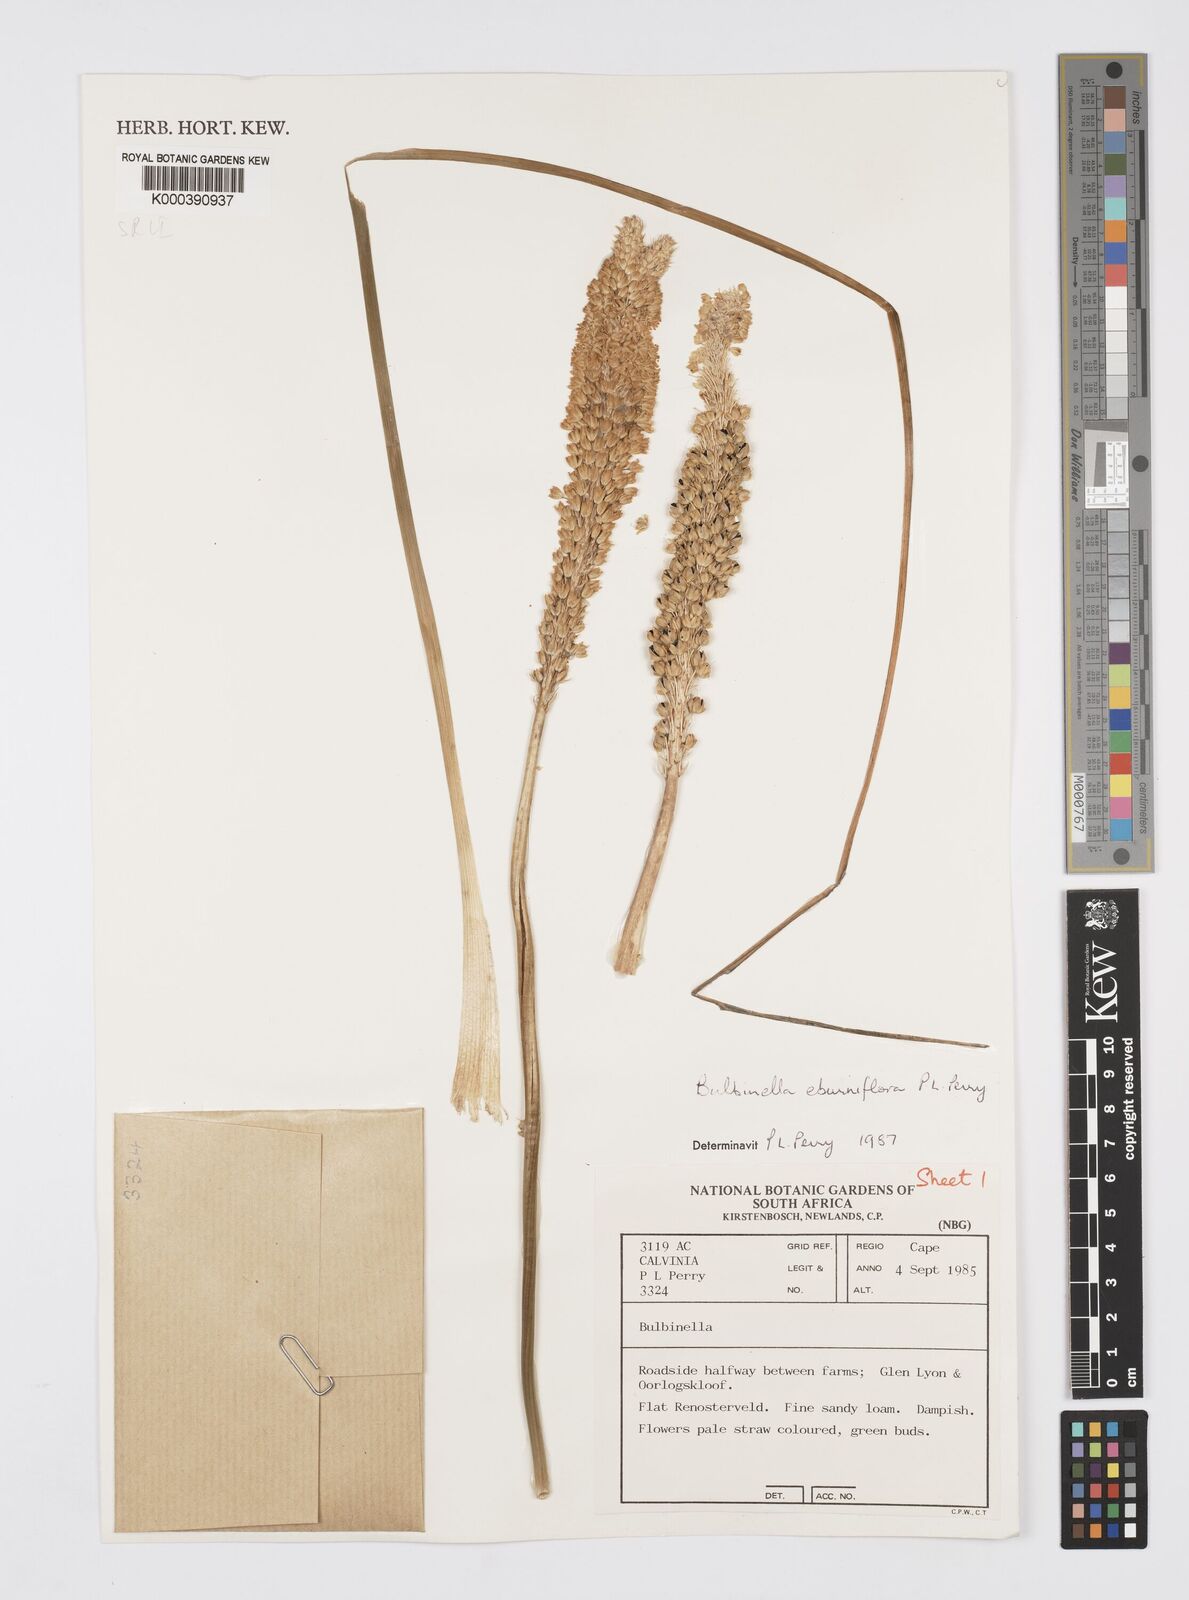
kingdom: Plantae
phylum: Tracheophyta
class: Liliopsida
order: Asparagales
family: Asphodelaceae
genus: Bulbinella
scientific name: Bulbinella eburniflora
